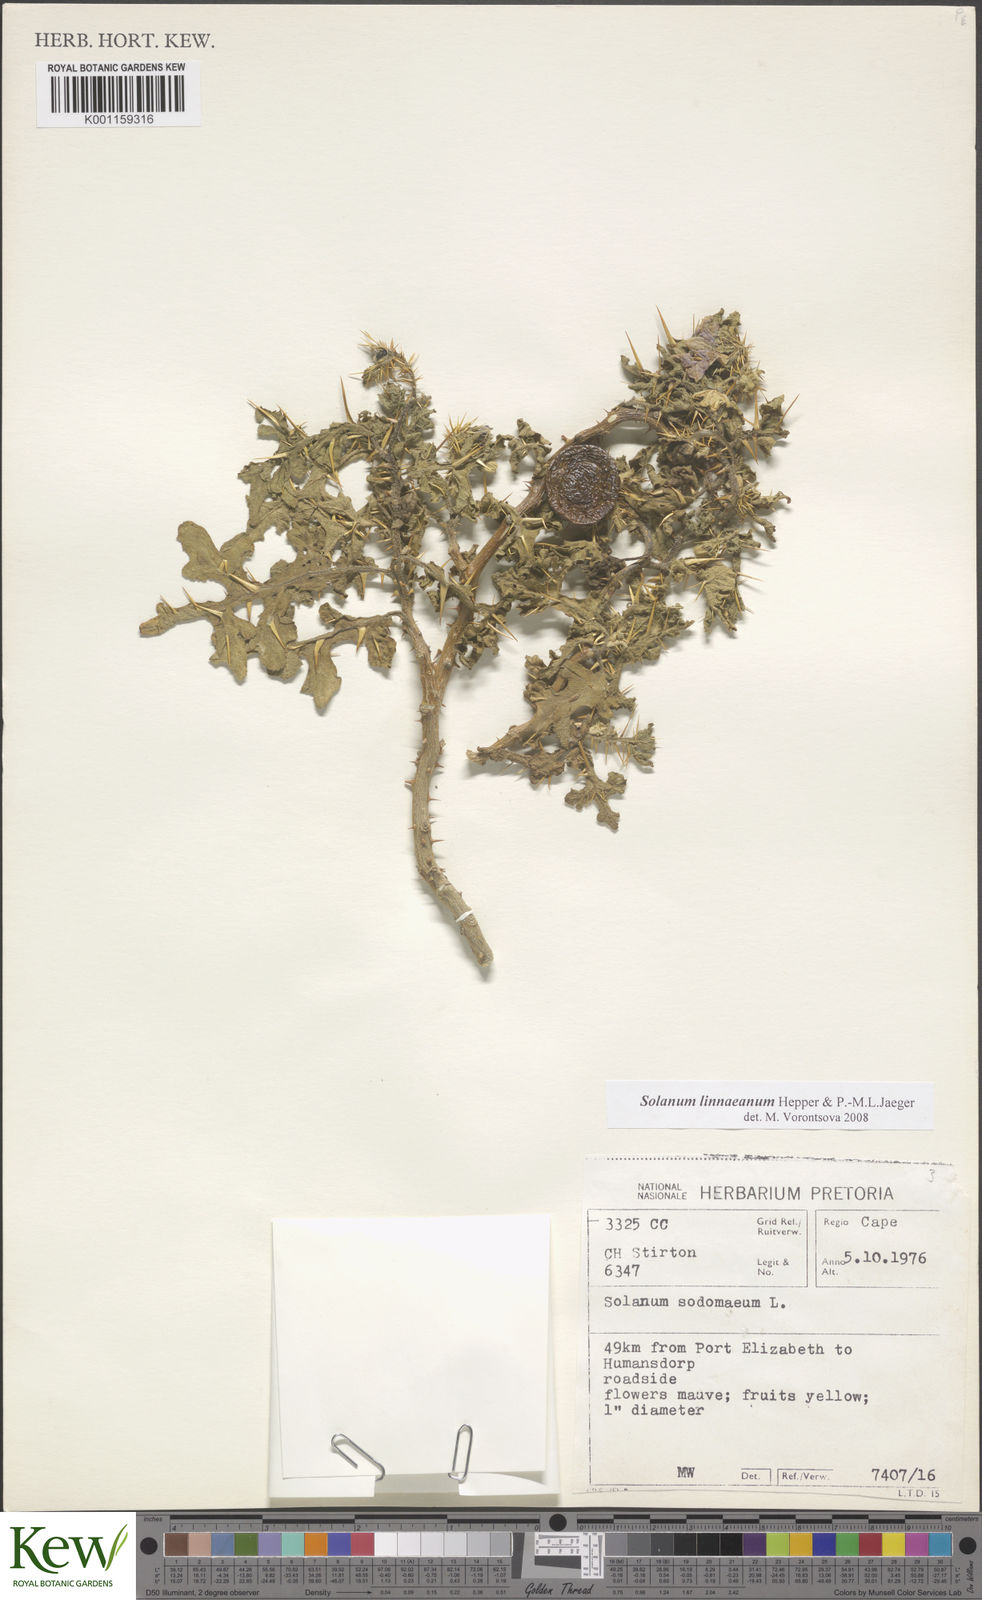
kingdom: Plantae
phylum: Tracheophyta
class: Magnoliopsida
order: Solanales
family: Solanaceae
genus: Solanum
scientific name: Solanum linnaeanum
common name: Nightshade
